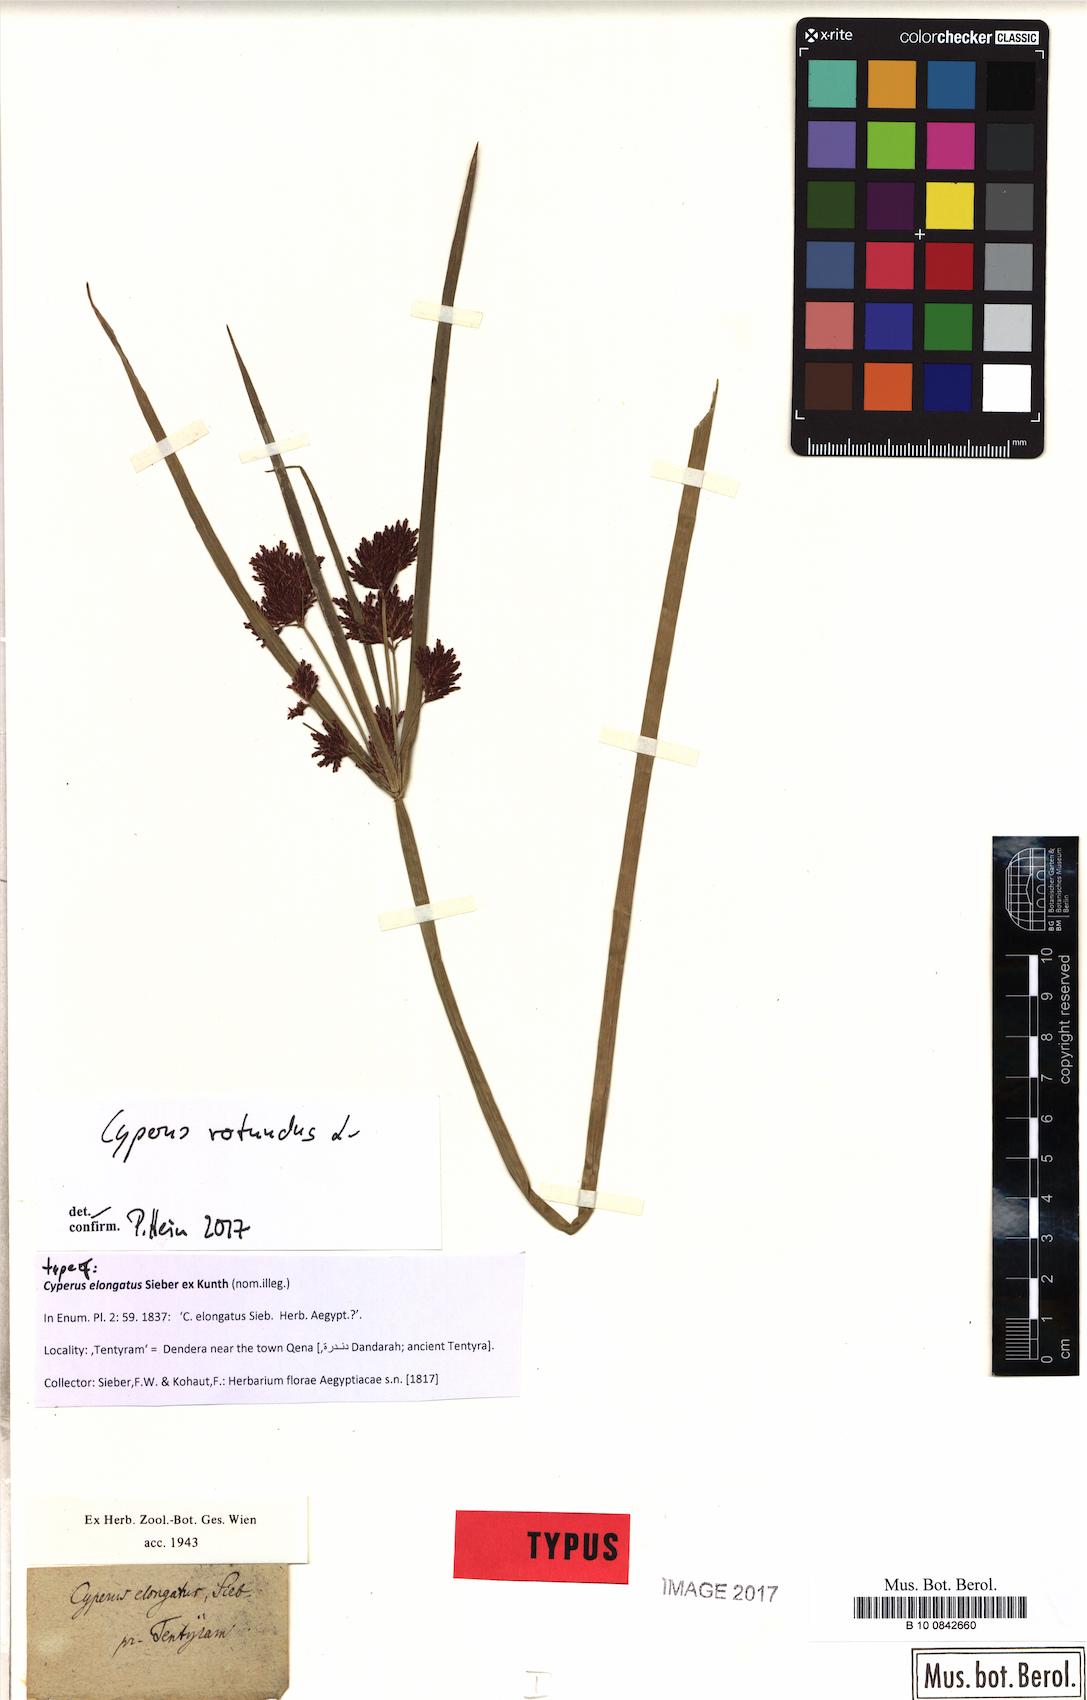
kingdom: Plantae
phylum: Tracheophyta
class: Liliopsida
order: Poales
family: Cyperaceae
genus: Cyperus
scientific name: Cyperus rotundus
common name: Nutgrass
